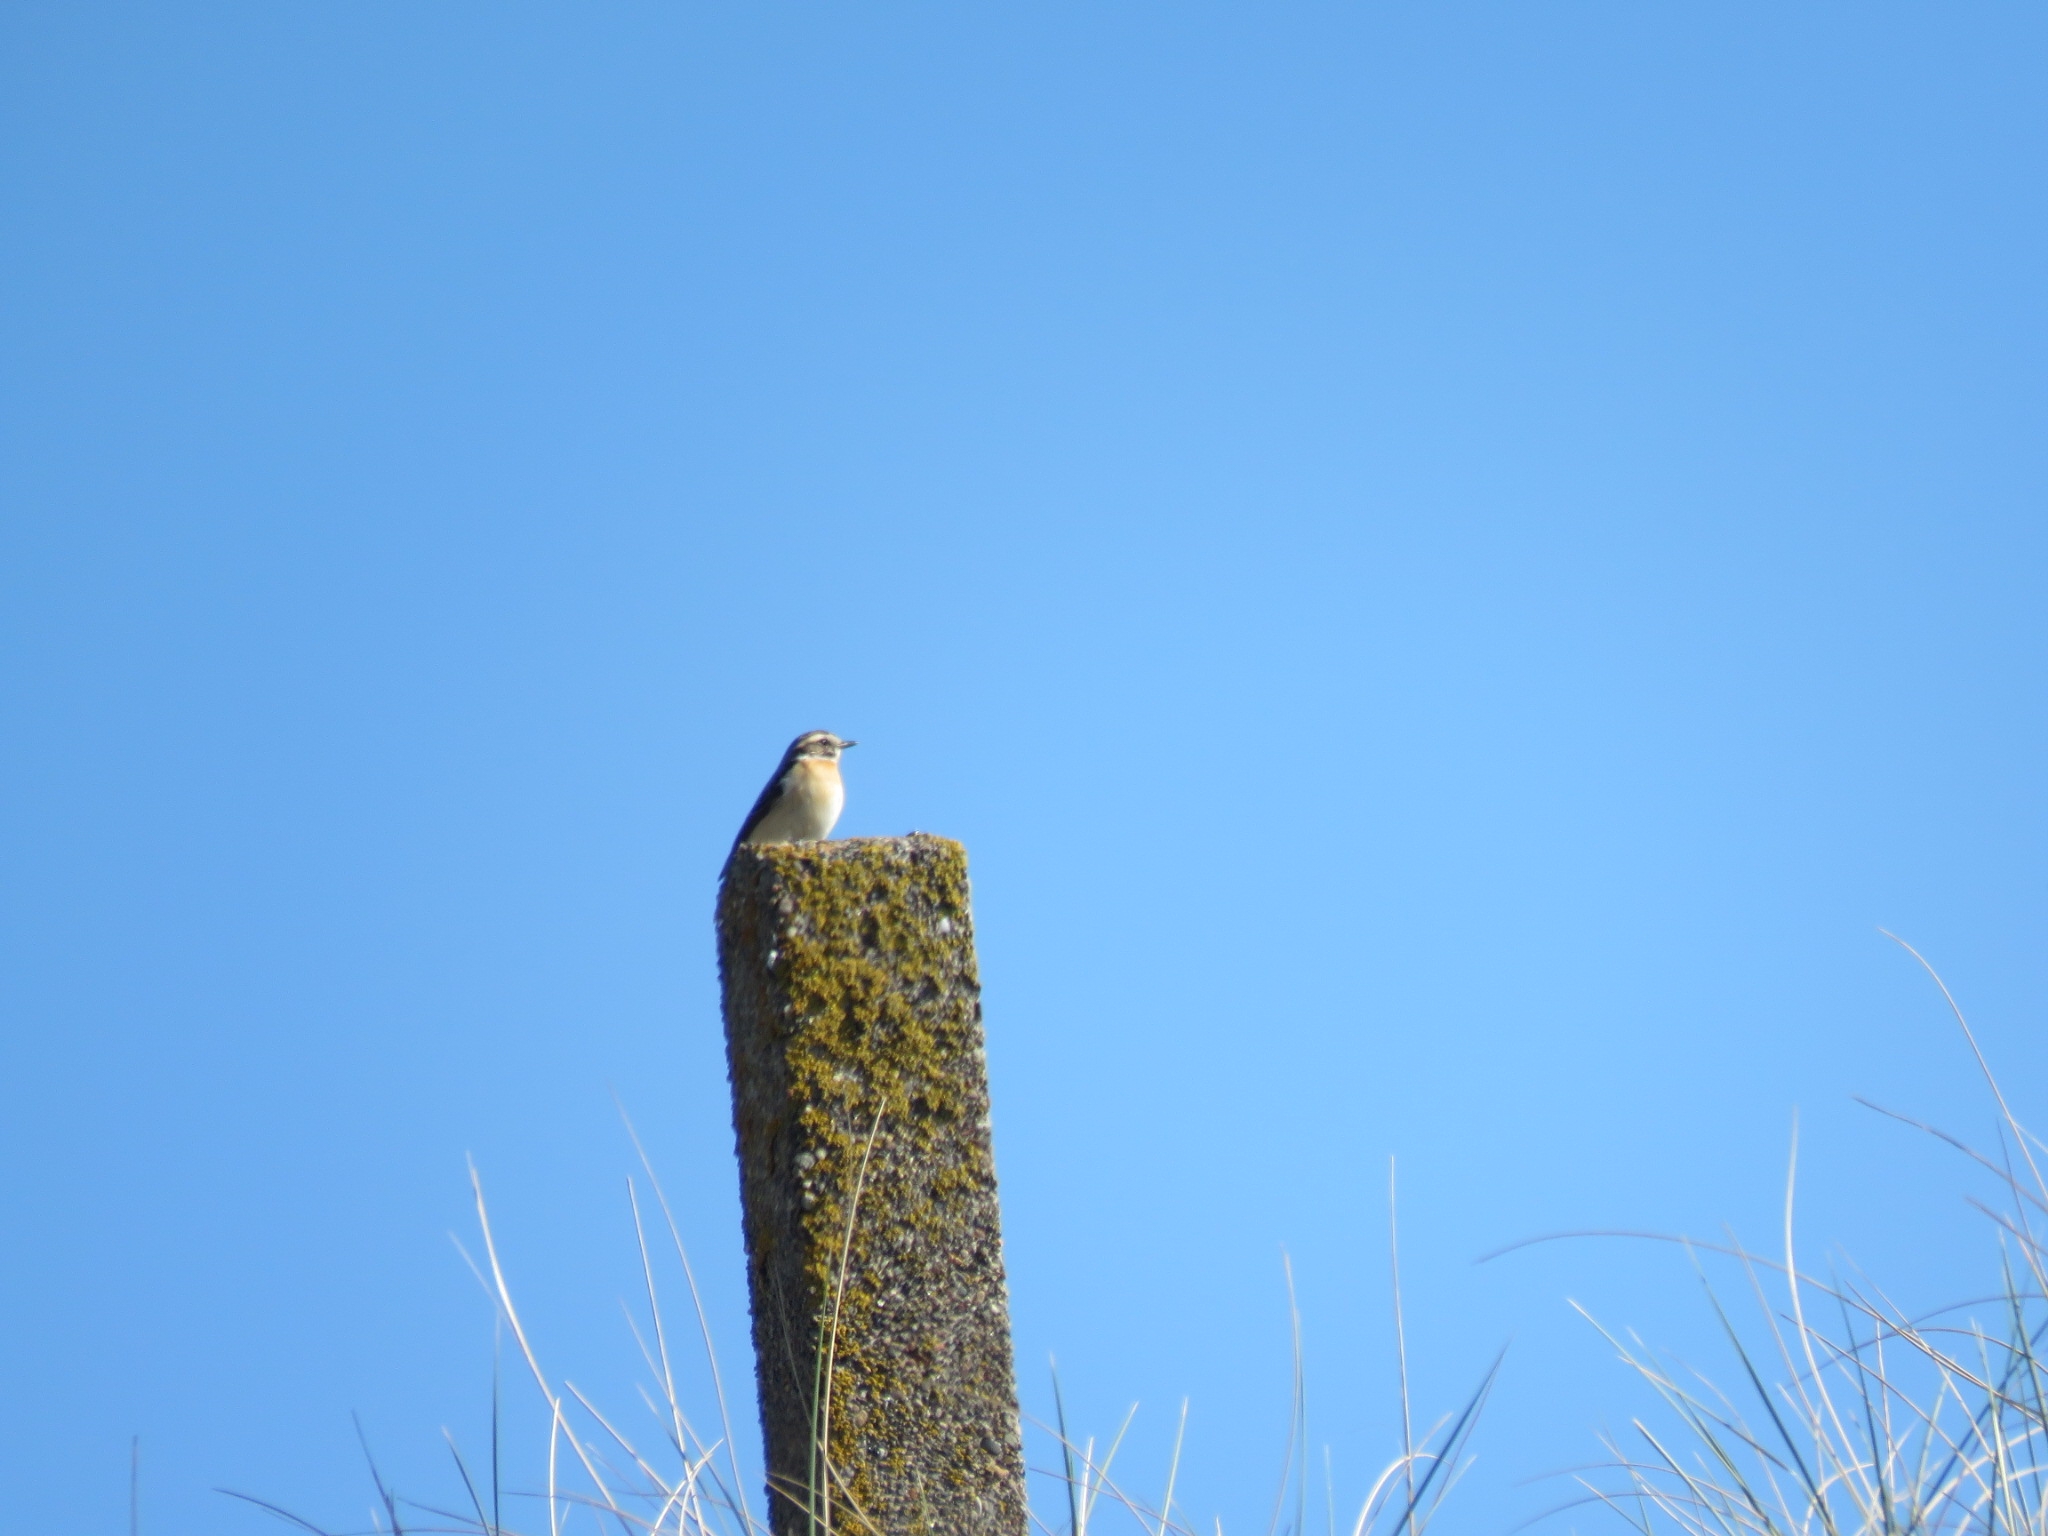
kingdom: Animalia
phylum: Chordata
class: Aves
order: Passeriformes
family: Muscicapidae
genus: Saxicola
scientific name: Saxicola rubetra
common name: Bynkefugl
